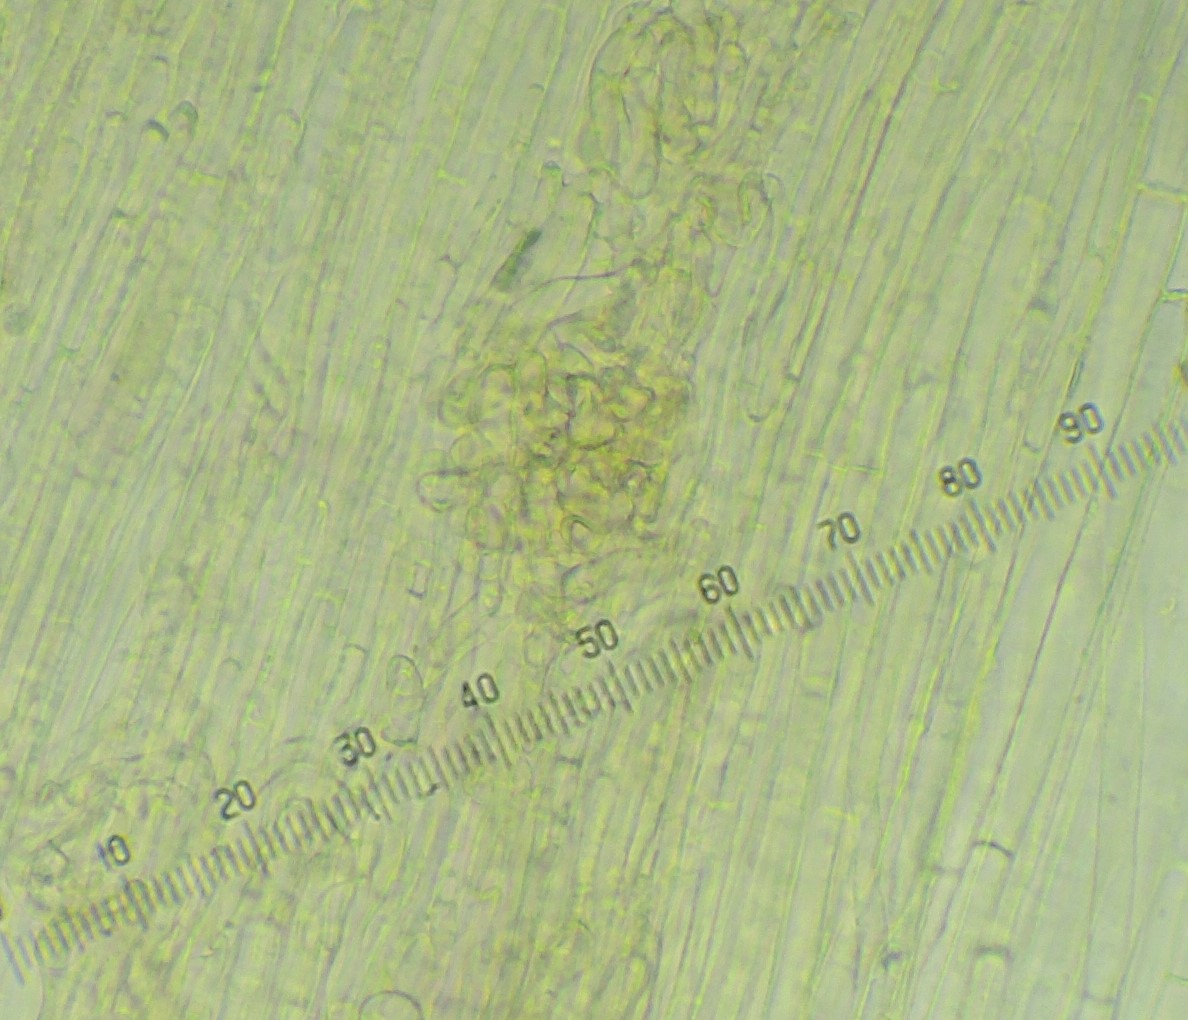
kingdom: Fungi
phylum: Basidiomycota
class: Agaricomycetes
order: Agaricales
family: Clavariaceae
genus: Hodophilus
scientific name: Hodophilus
